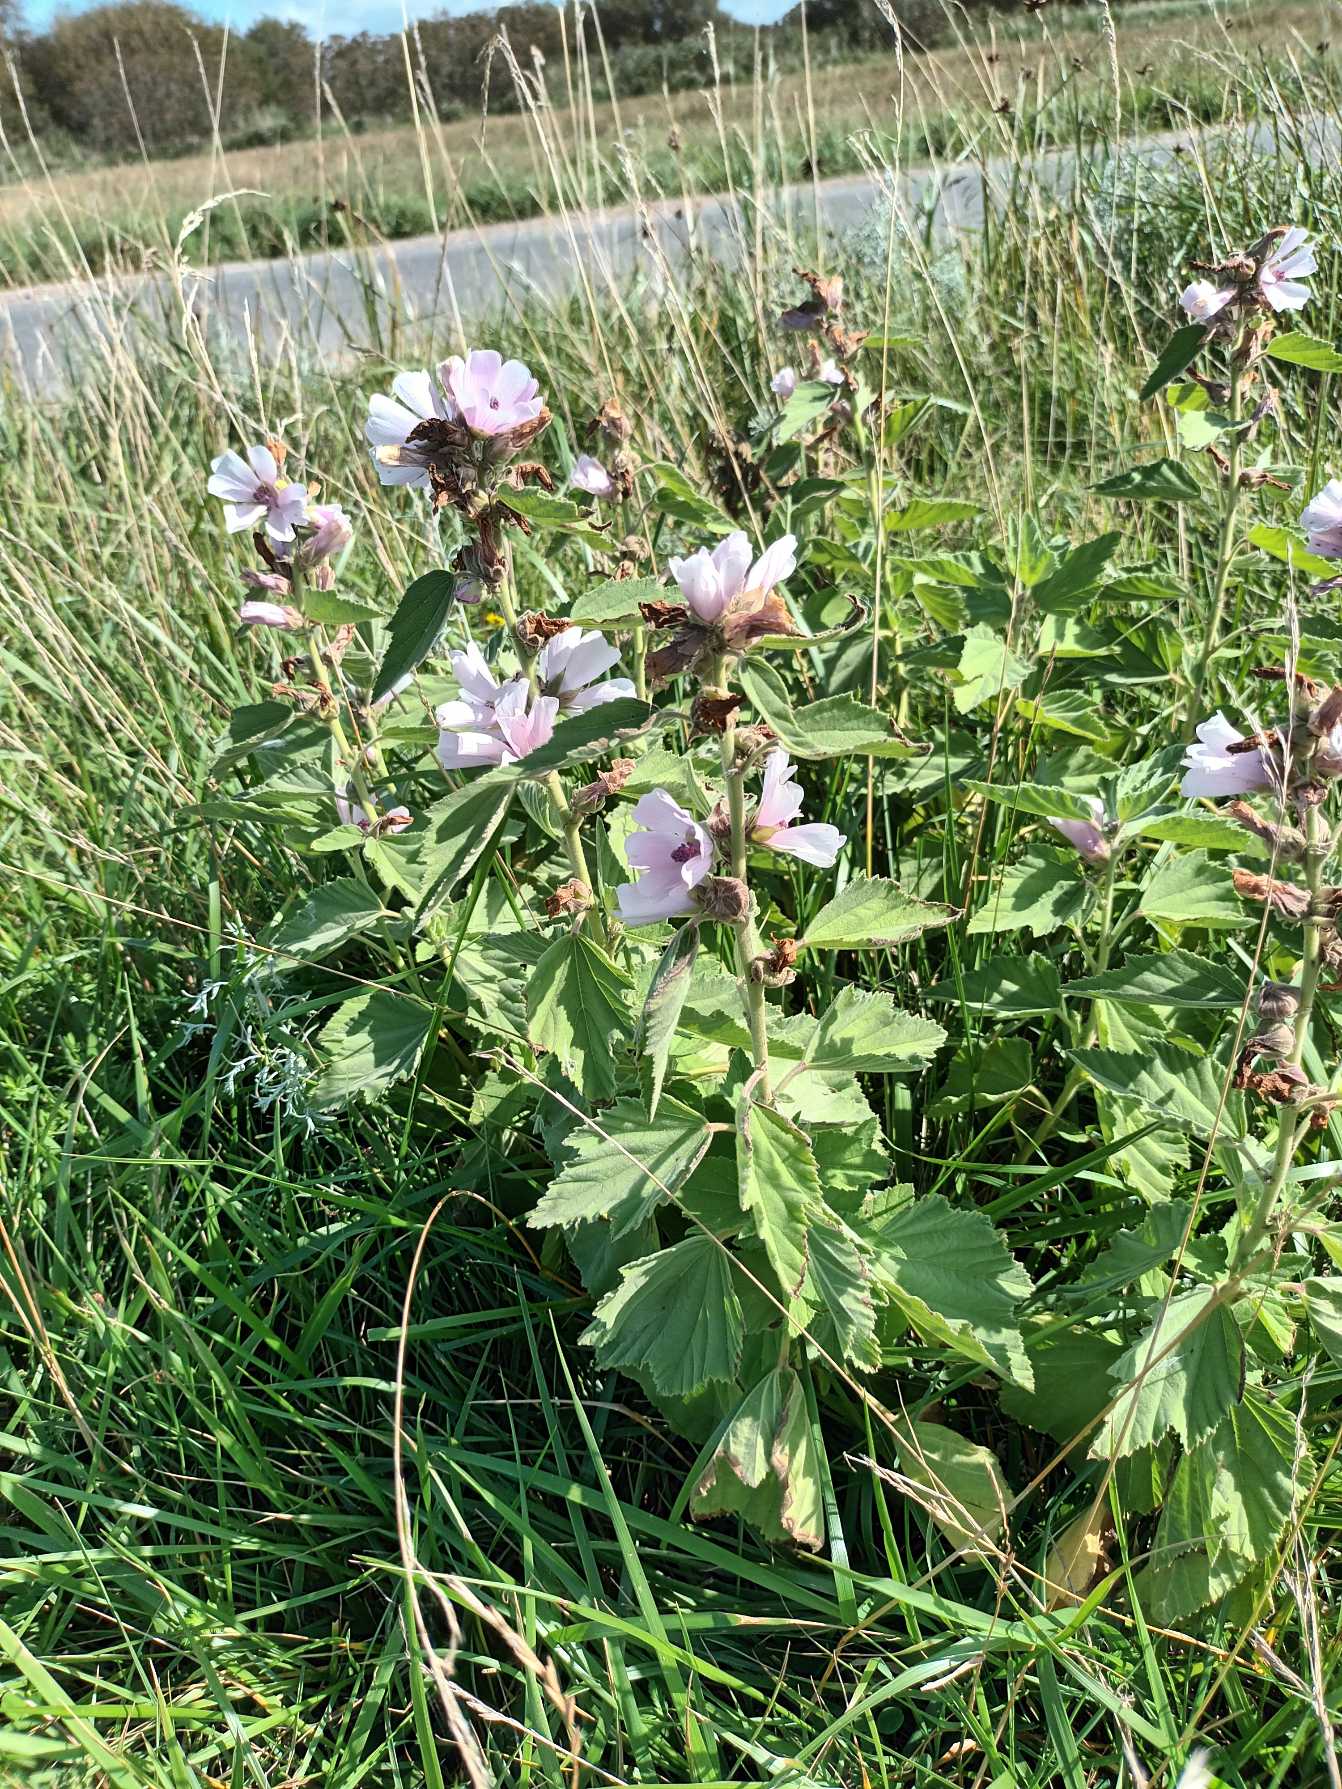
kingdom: Plantae
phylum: Tracheophyta
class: Magnoliopsida
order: Malvales
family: Malvaceae
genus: Althaea
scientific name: Althaea officinalis
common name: Lægestokrose
